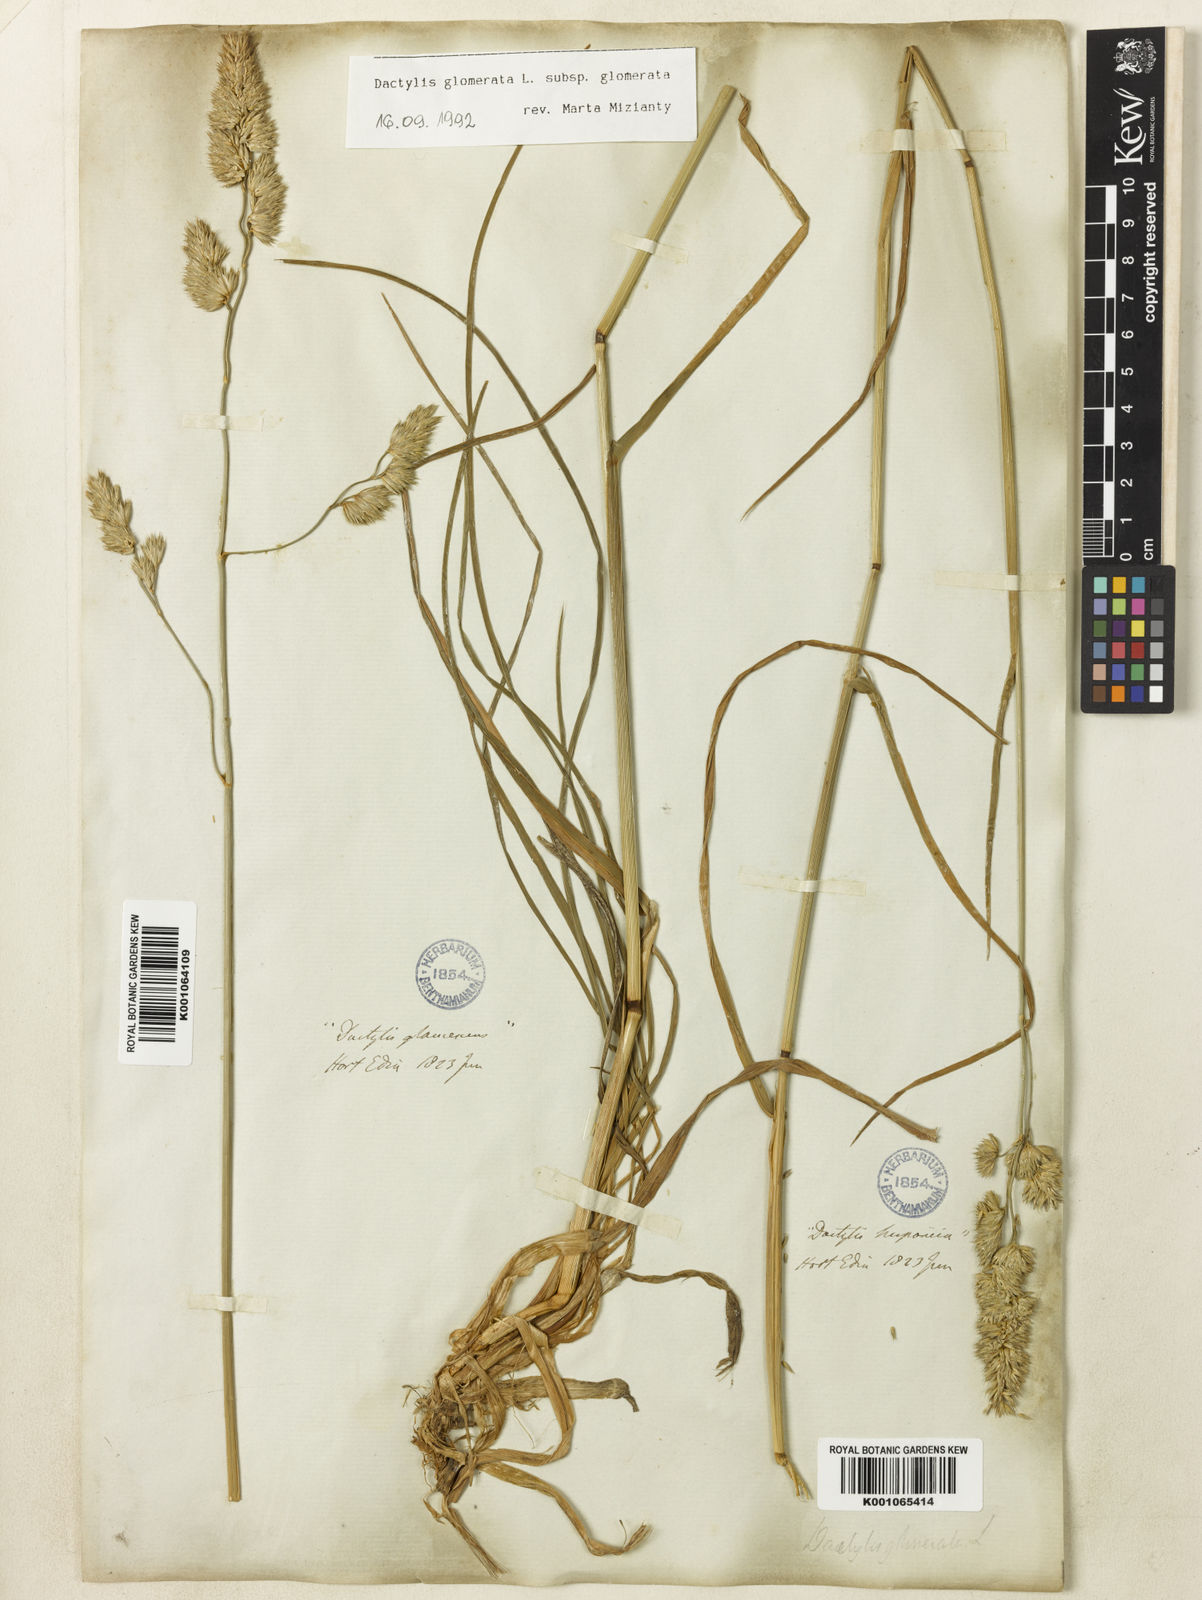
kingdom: Plantae
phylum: Tracheophyta
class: Liliopsida
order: Poales
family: Poaceae
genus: Dactylis
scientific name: Dactylis glomerata
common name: Orchardgrass
